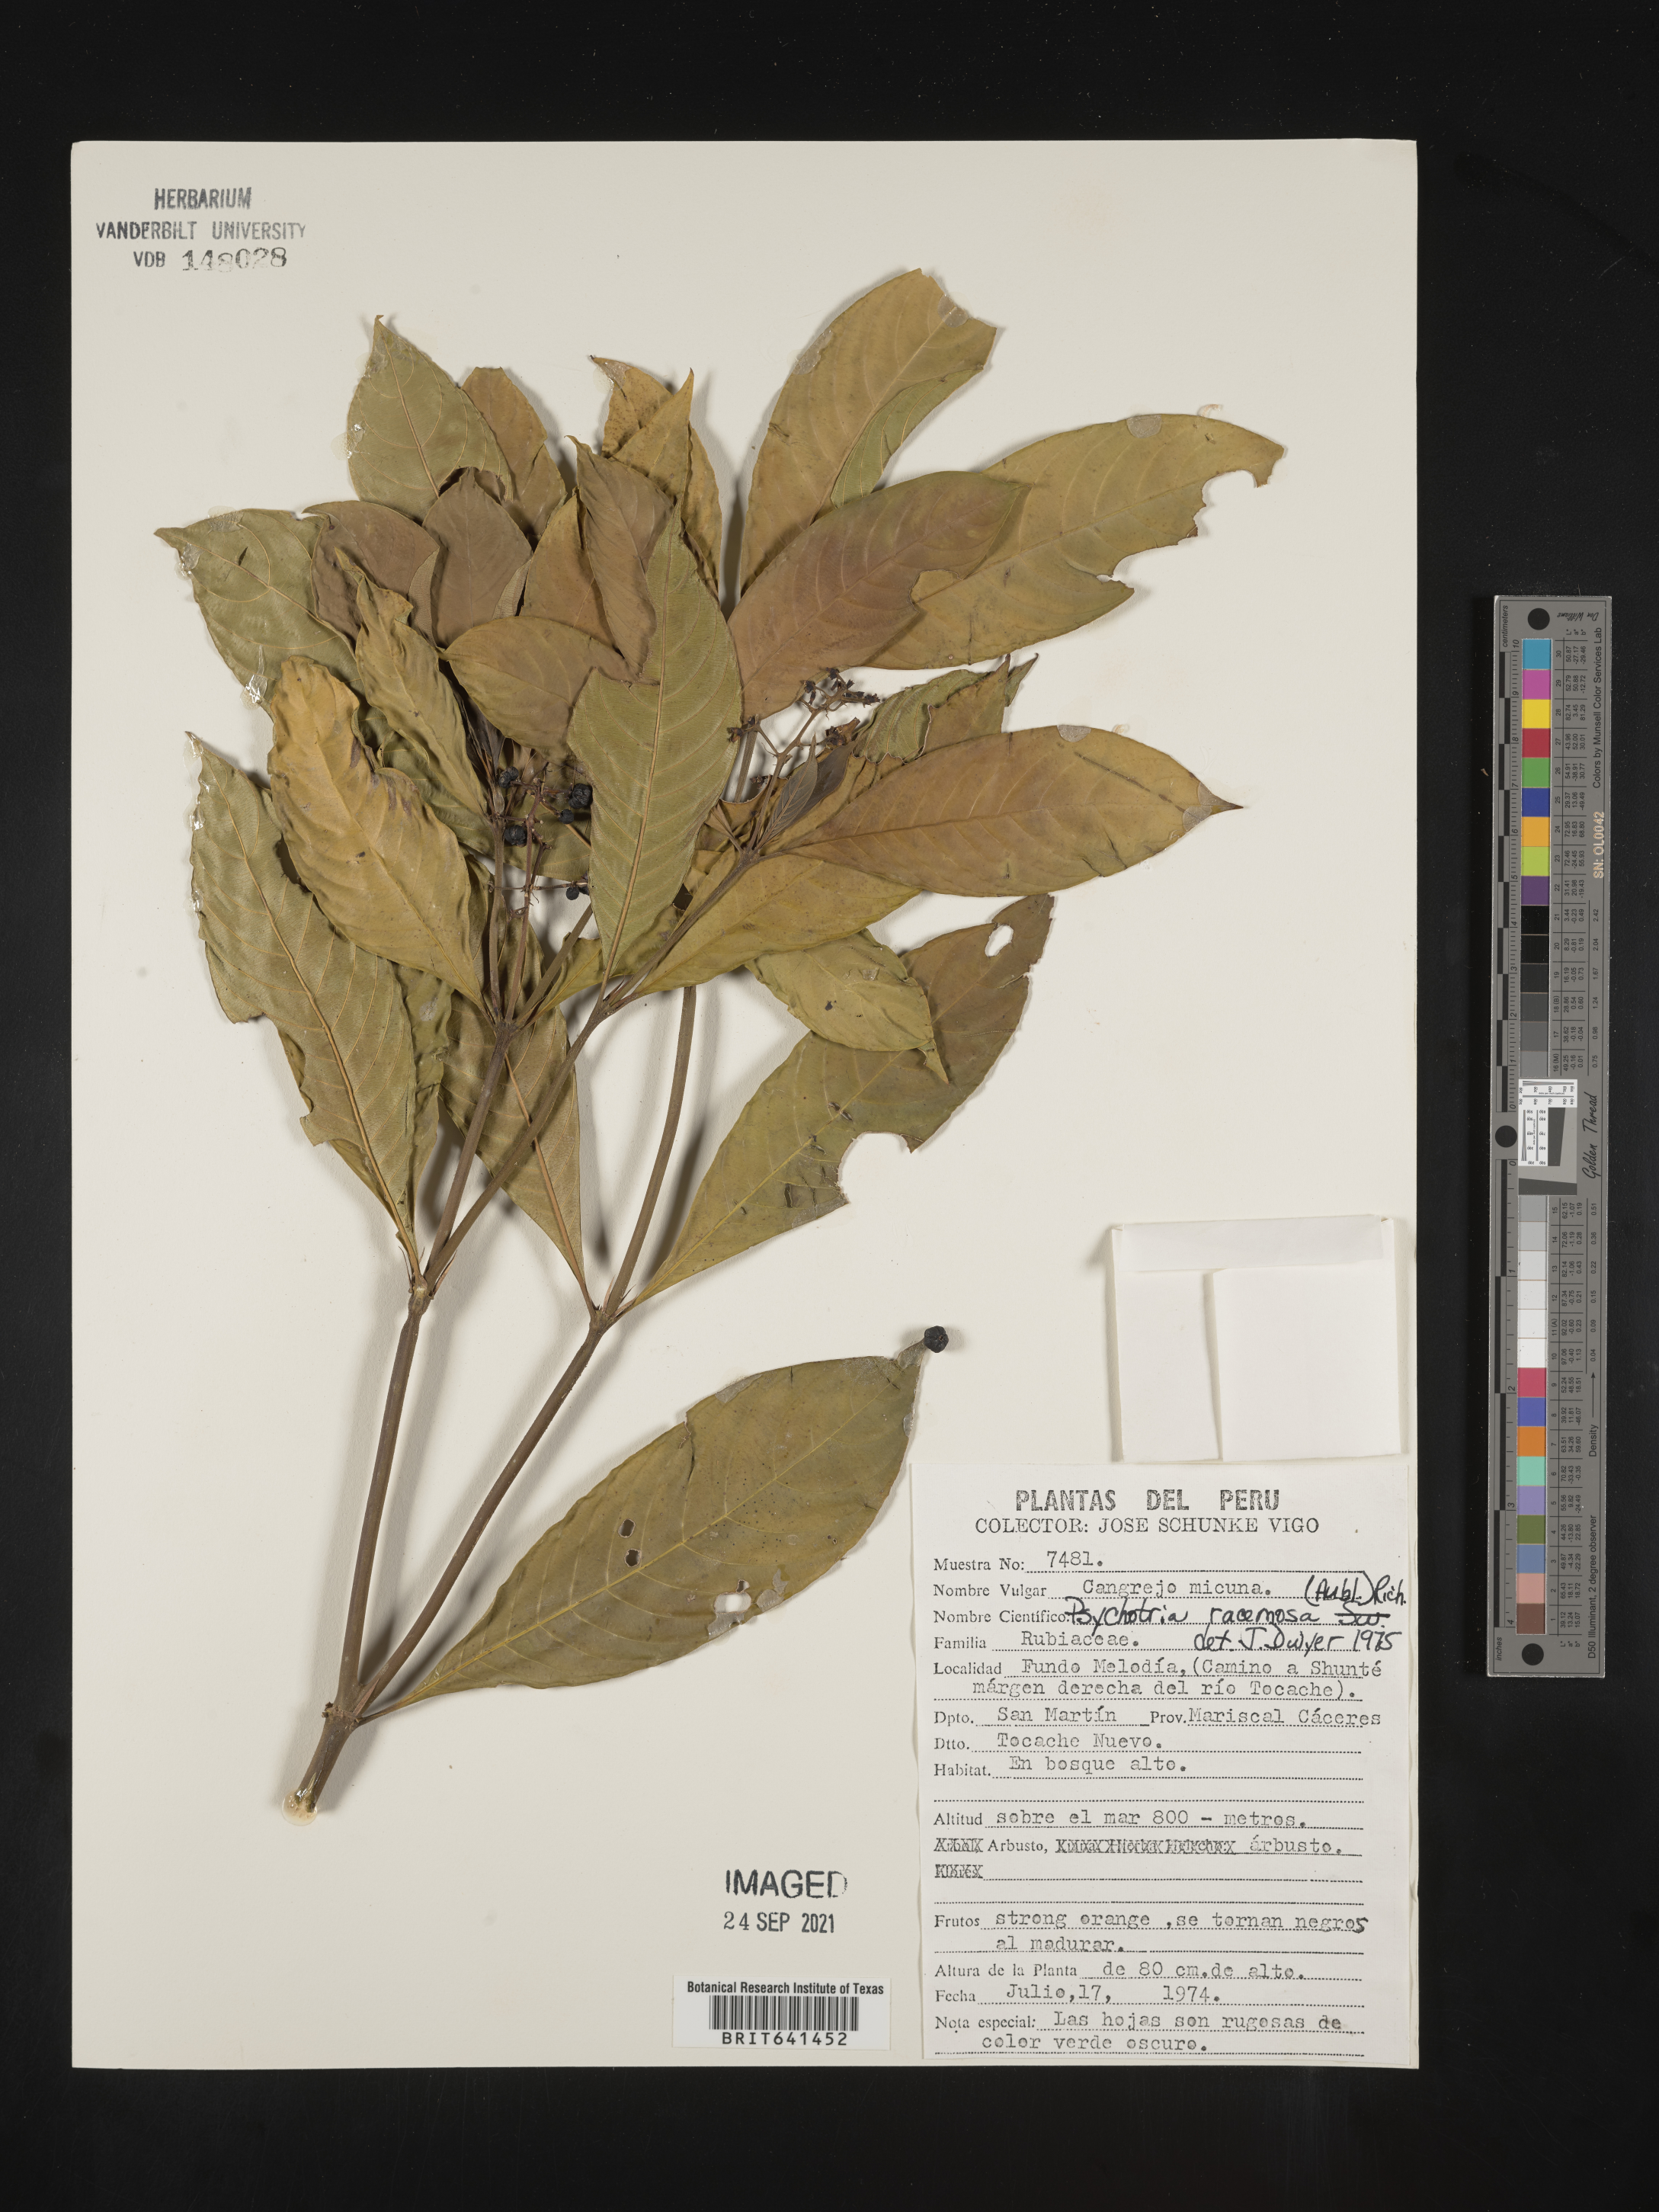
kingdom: Plantae
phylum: Tracheophyta
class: Magnoliopsida
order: Gentianales
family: Rubiaceae
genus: Psychotria
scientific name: Psychotria
